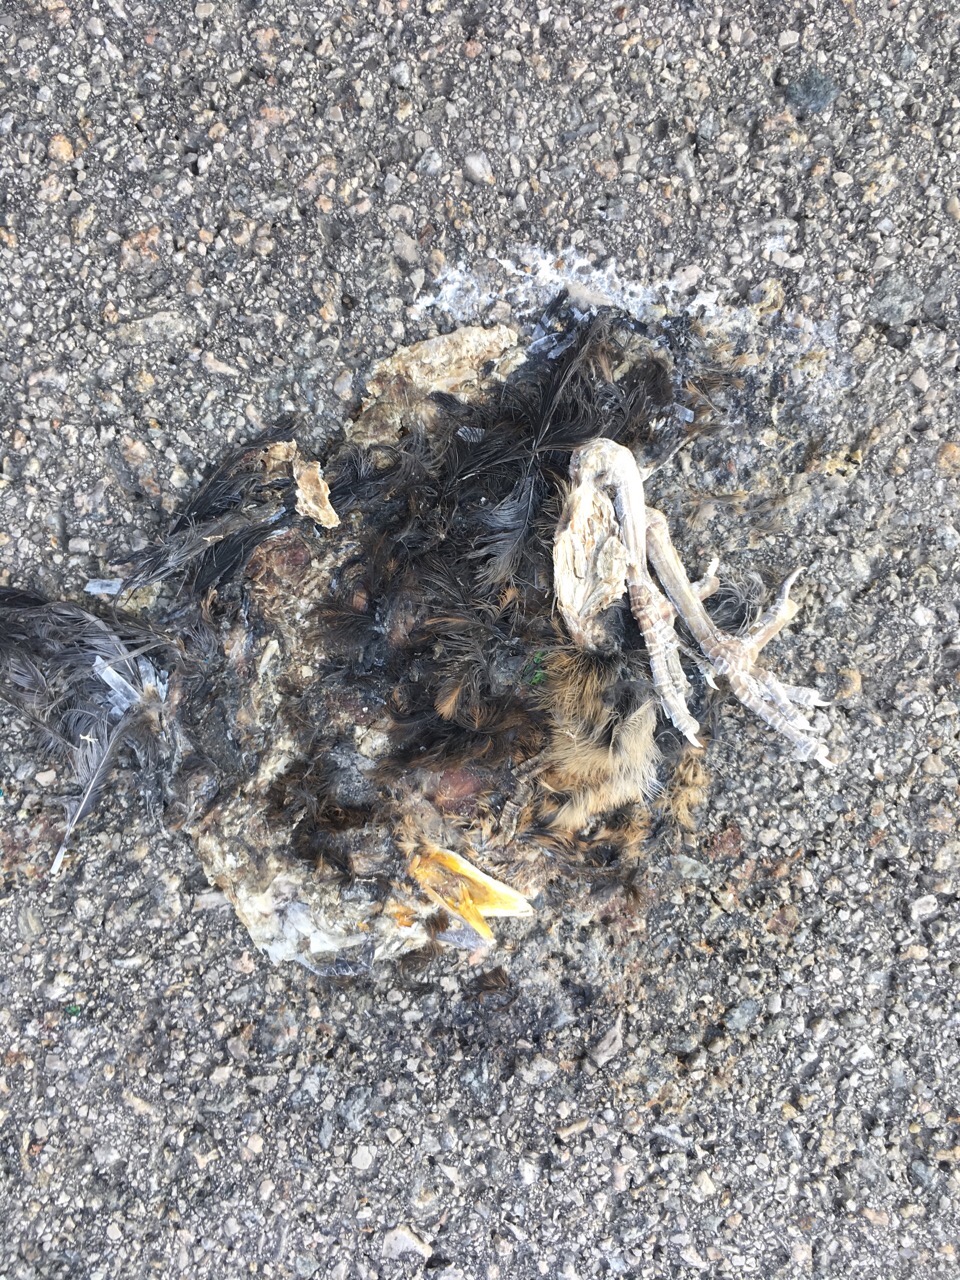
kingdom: Animalia
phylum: Chordata
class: Aves
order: Passeriformes
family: Turdidae
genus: Turdus
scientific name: Turdus
